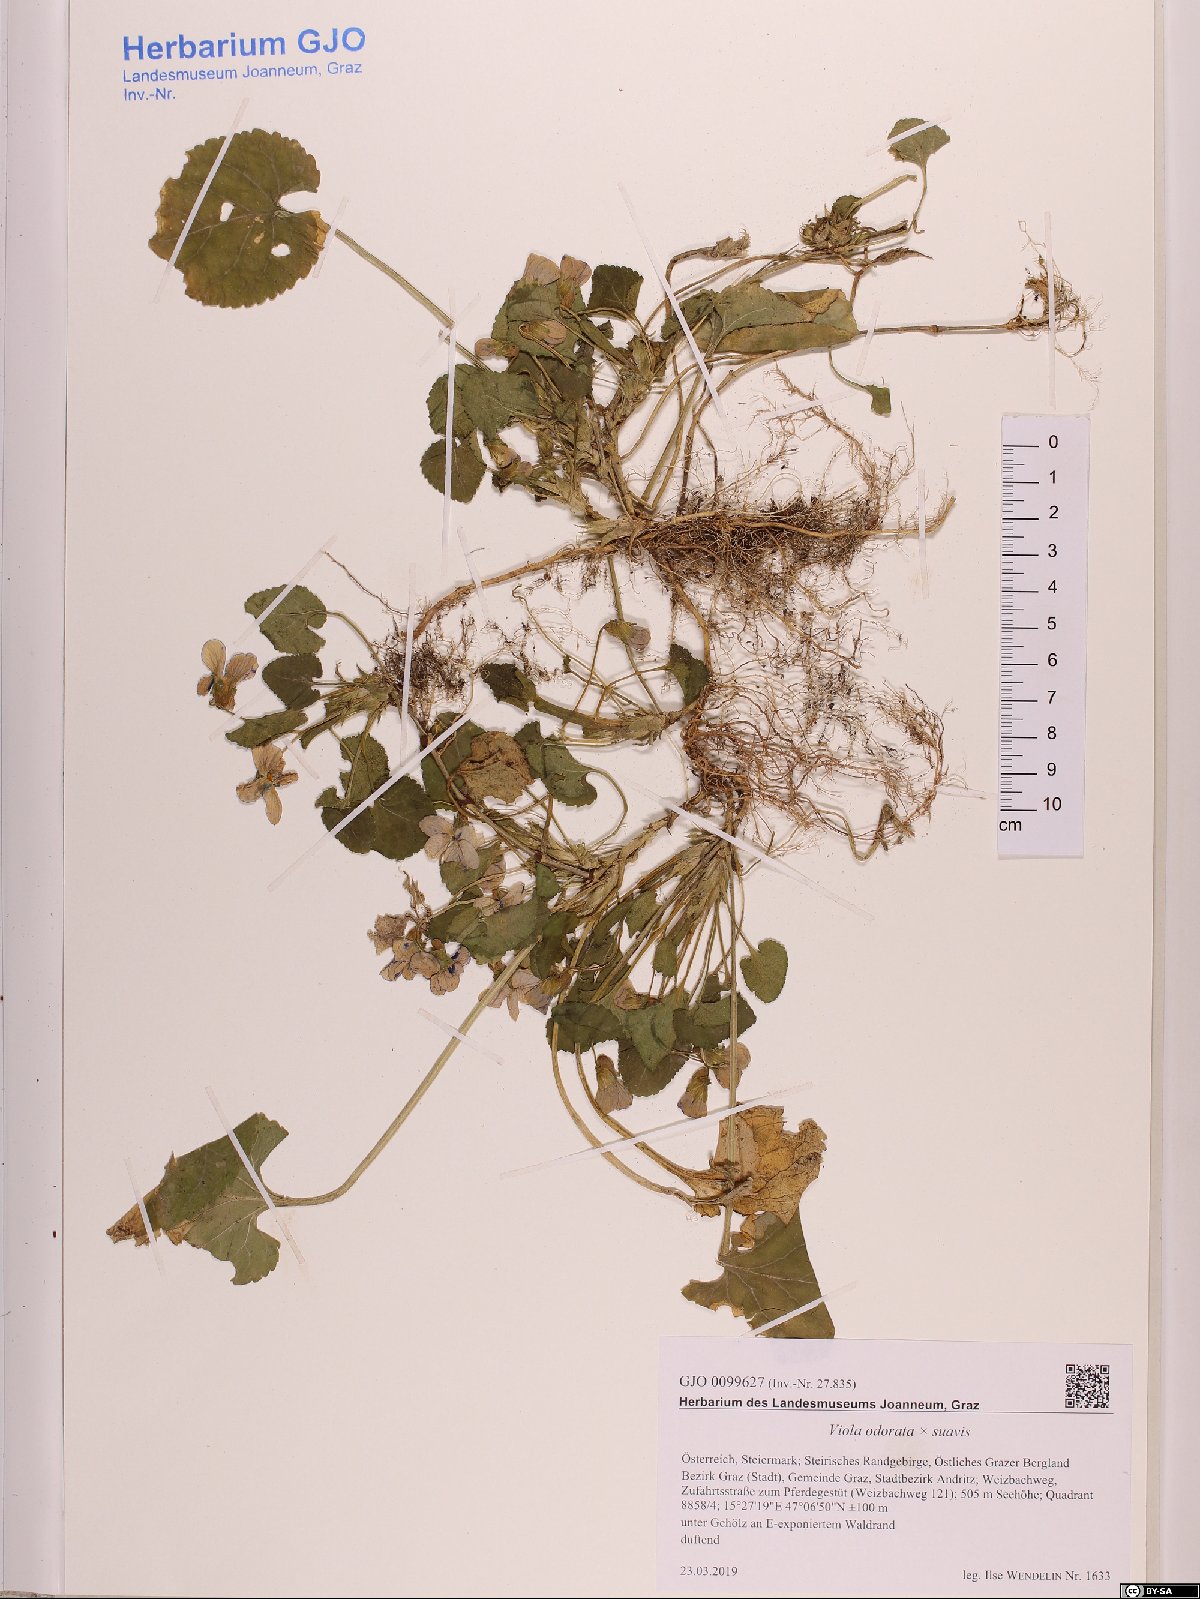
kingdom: Plantae
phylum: Tracheophyta
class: Magnoliopsida
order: Malpighiales
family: Violaceae
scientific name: Violaceae
